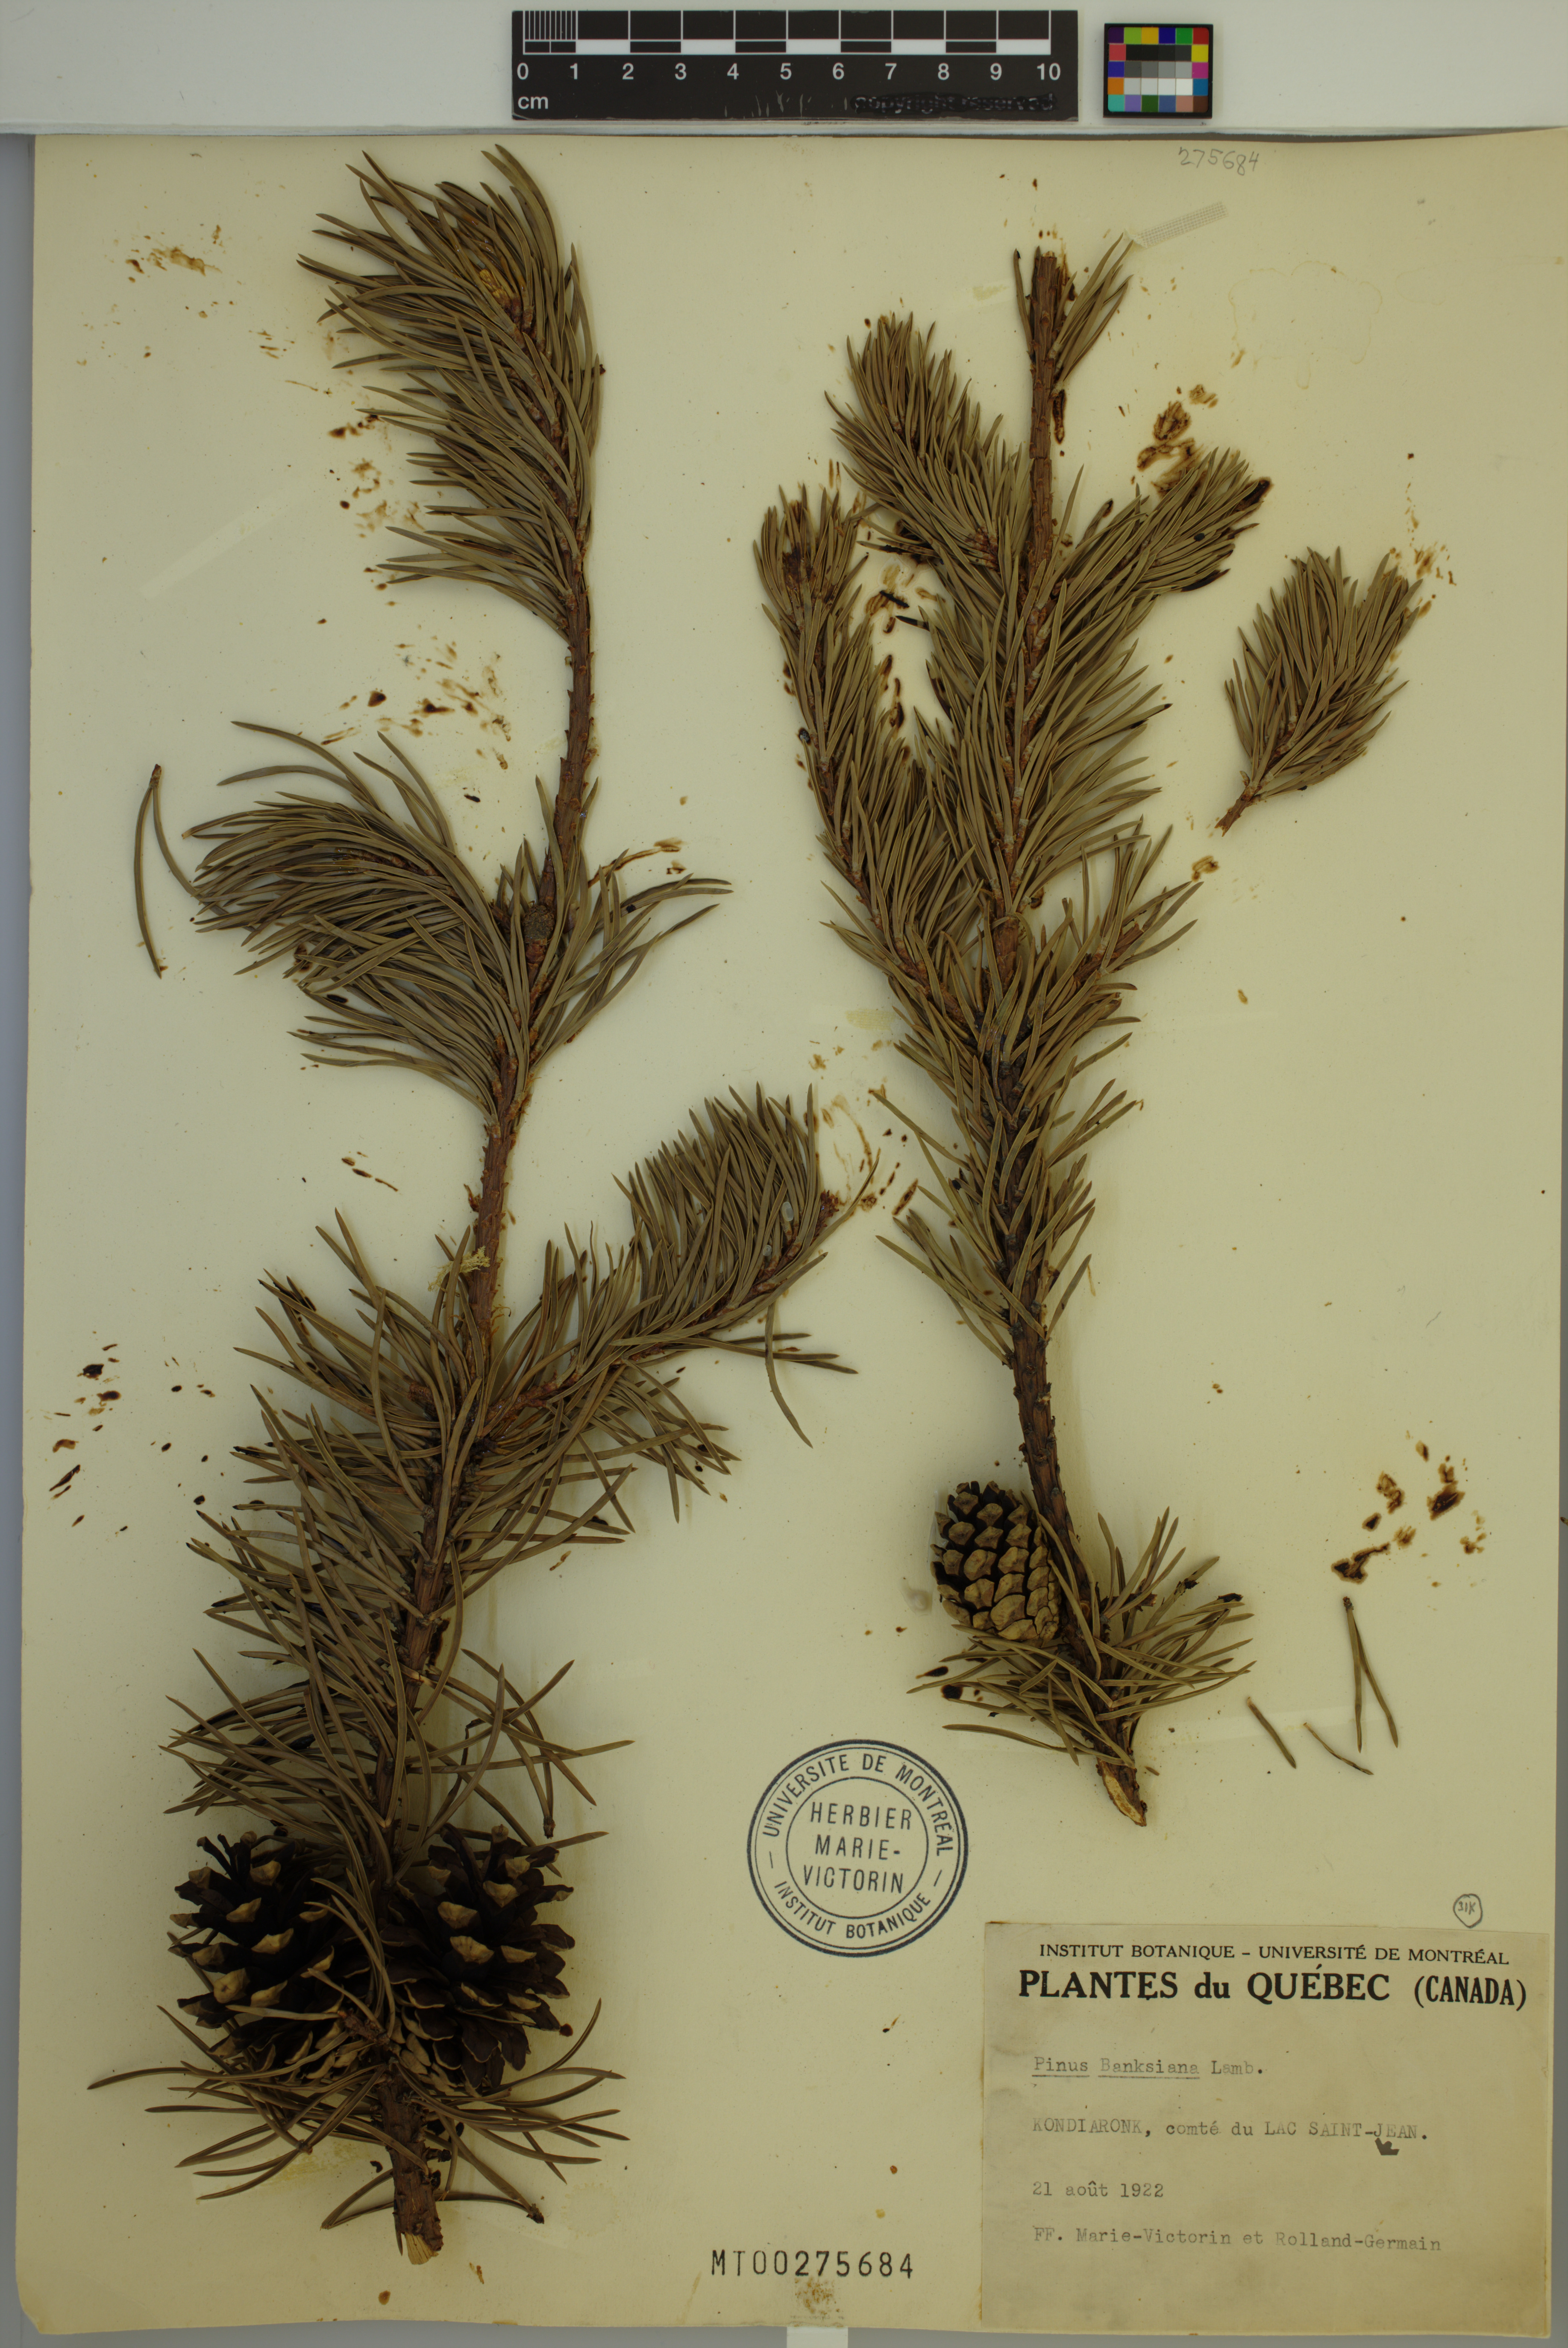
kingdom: Plantae
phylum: Tracheophyta
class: Pinopsida
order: Pinales
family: Pinaceae
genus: Pinus
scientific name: Pinus banksiana
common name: Jack pine
